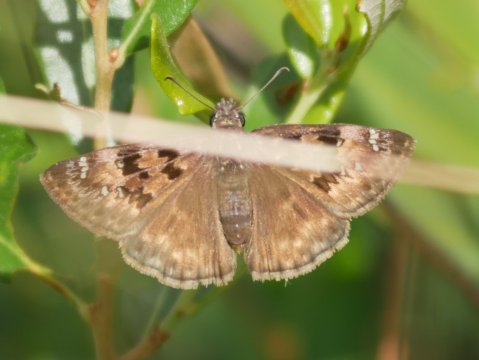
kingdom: Animalia
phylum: Arthropoda
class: Insecta
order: Lepidoptera
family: Hesperiidae
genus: Gesta
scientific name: Gesta
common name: Horace's Duskywing
